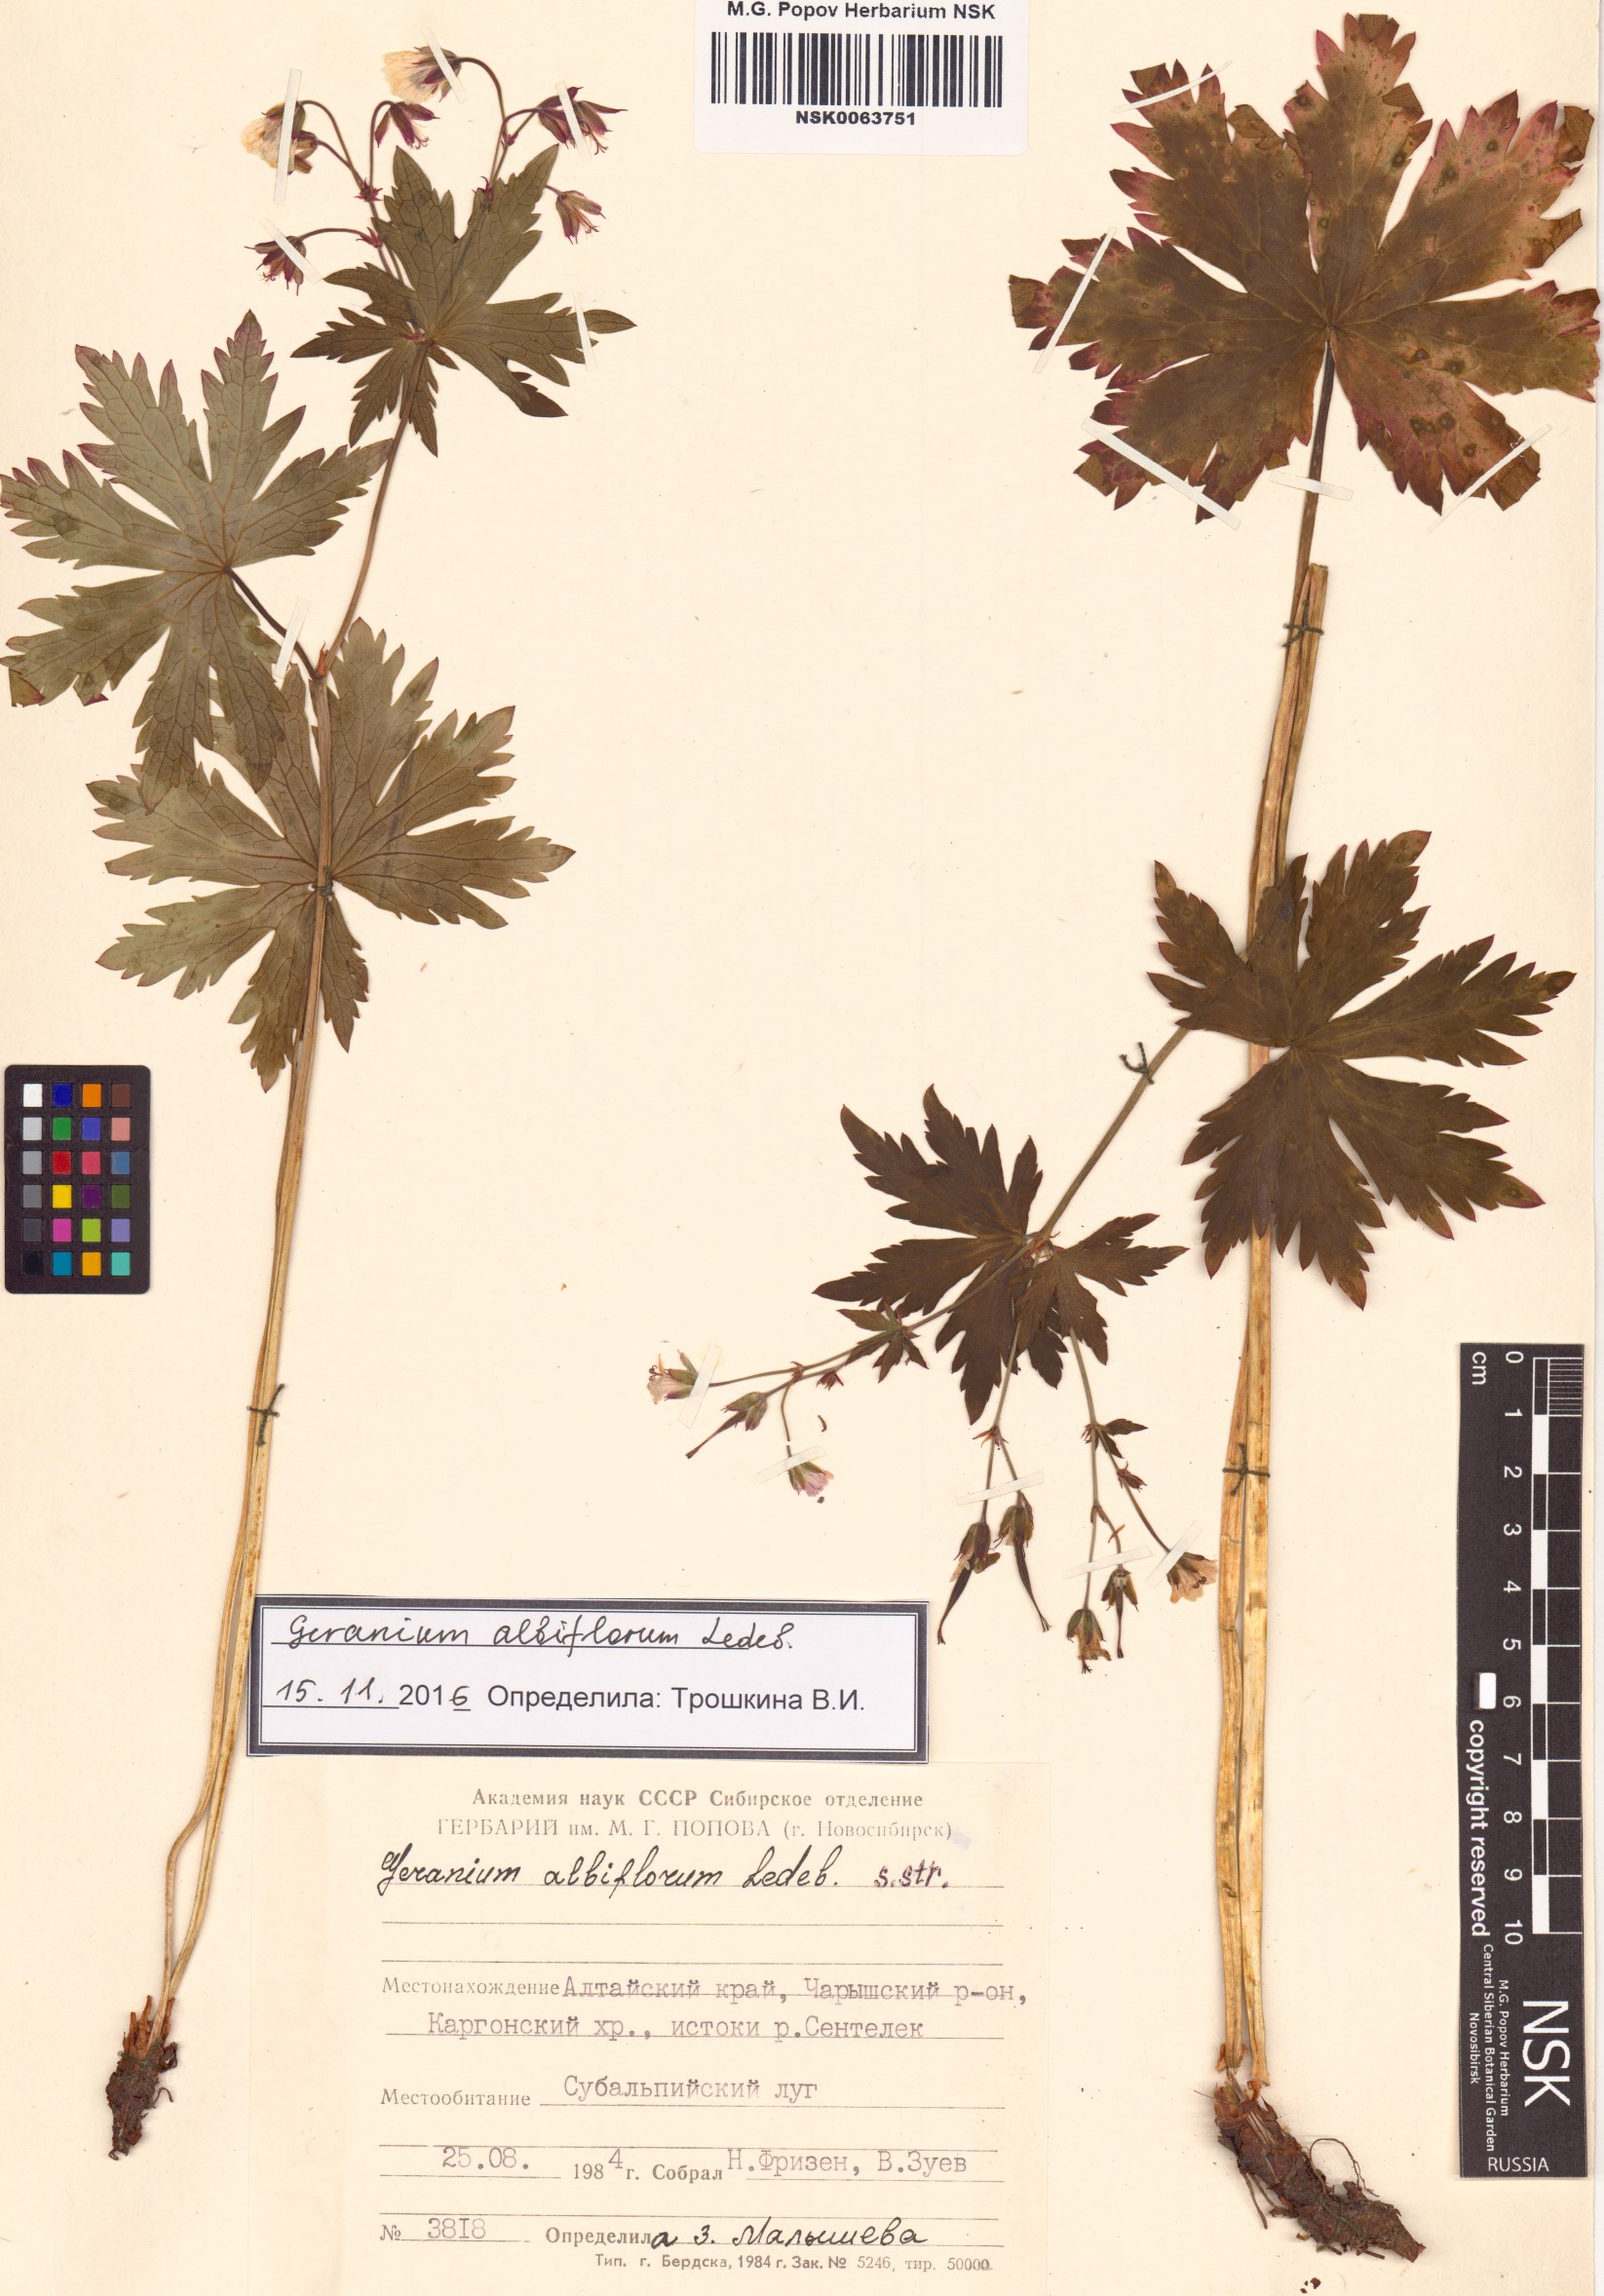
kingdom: Plantae
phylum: Tracheophyta
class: Magnoliopsida
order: Geraniales
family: Geraniaceae
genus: Geranium
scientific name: Geranium albiflorum
